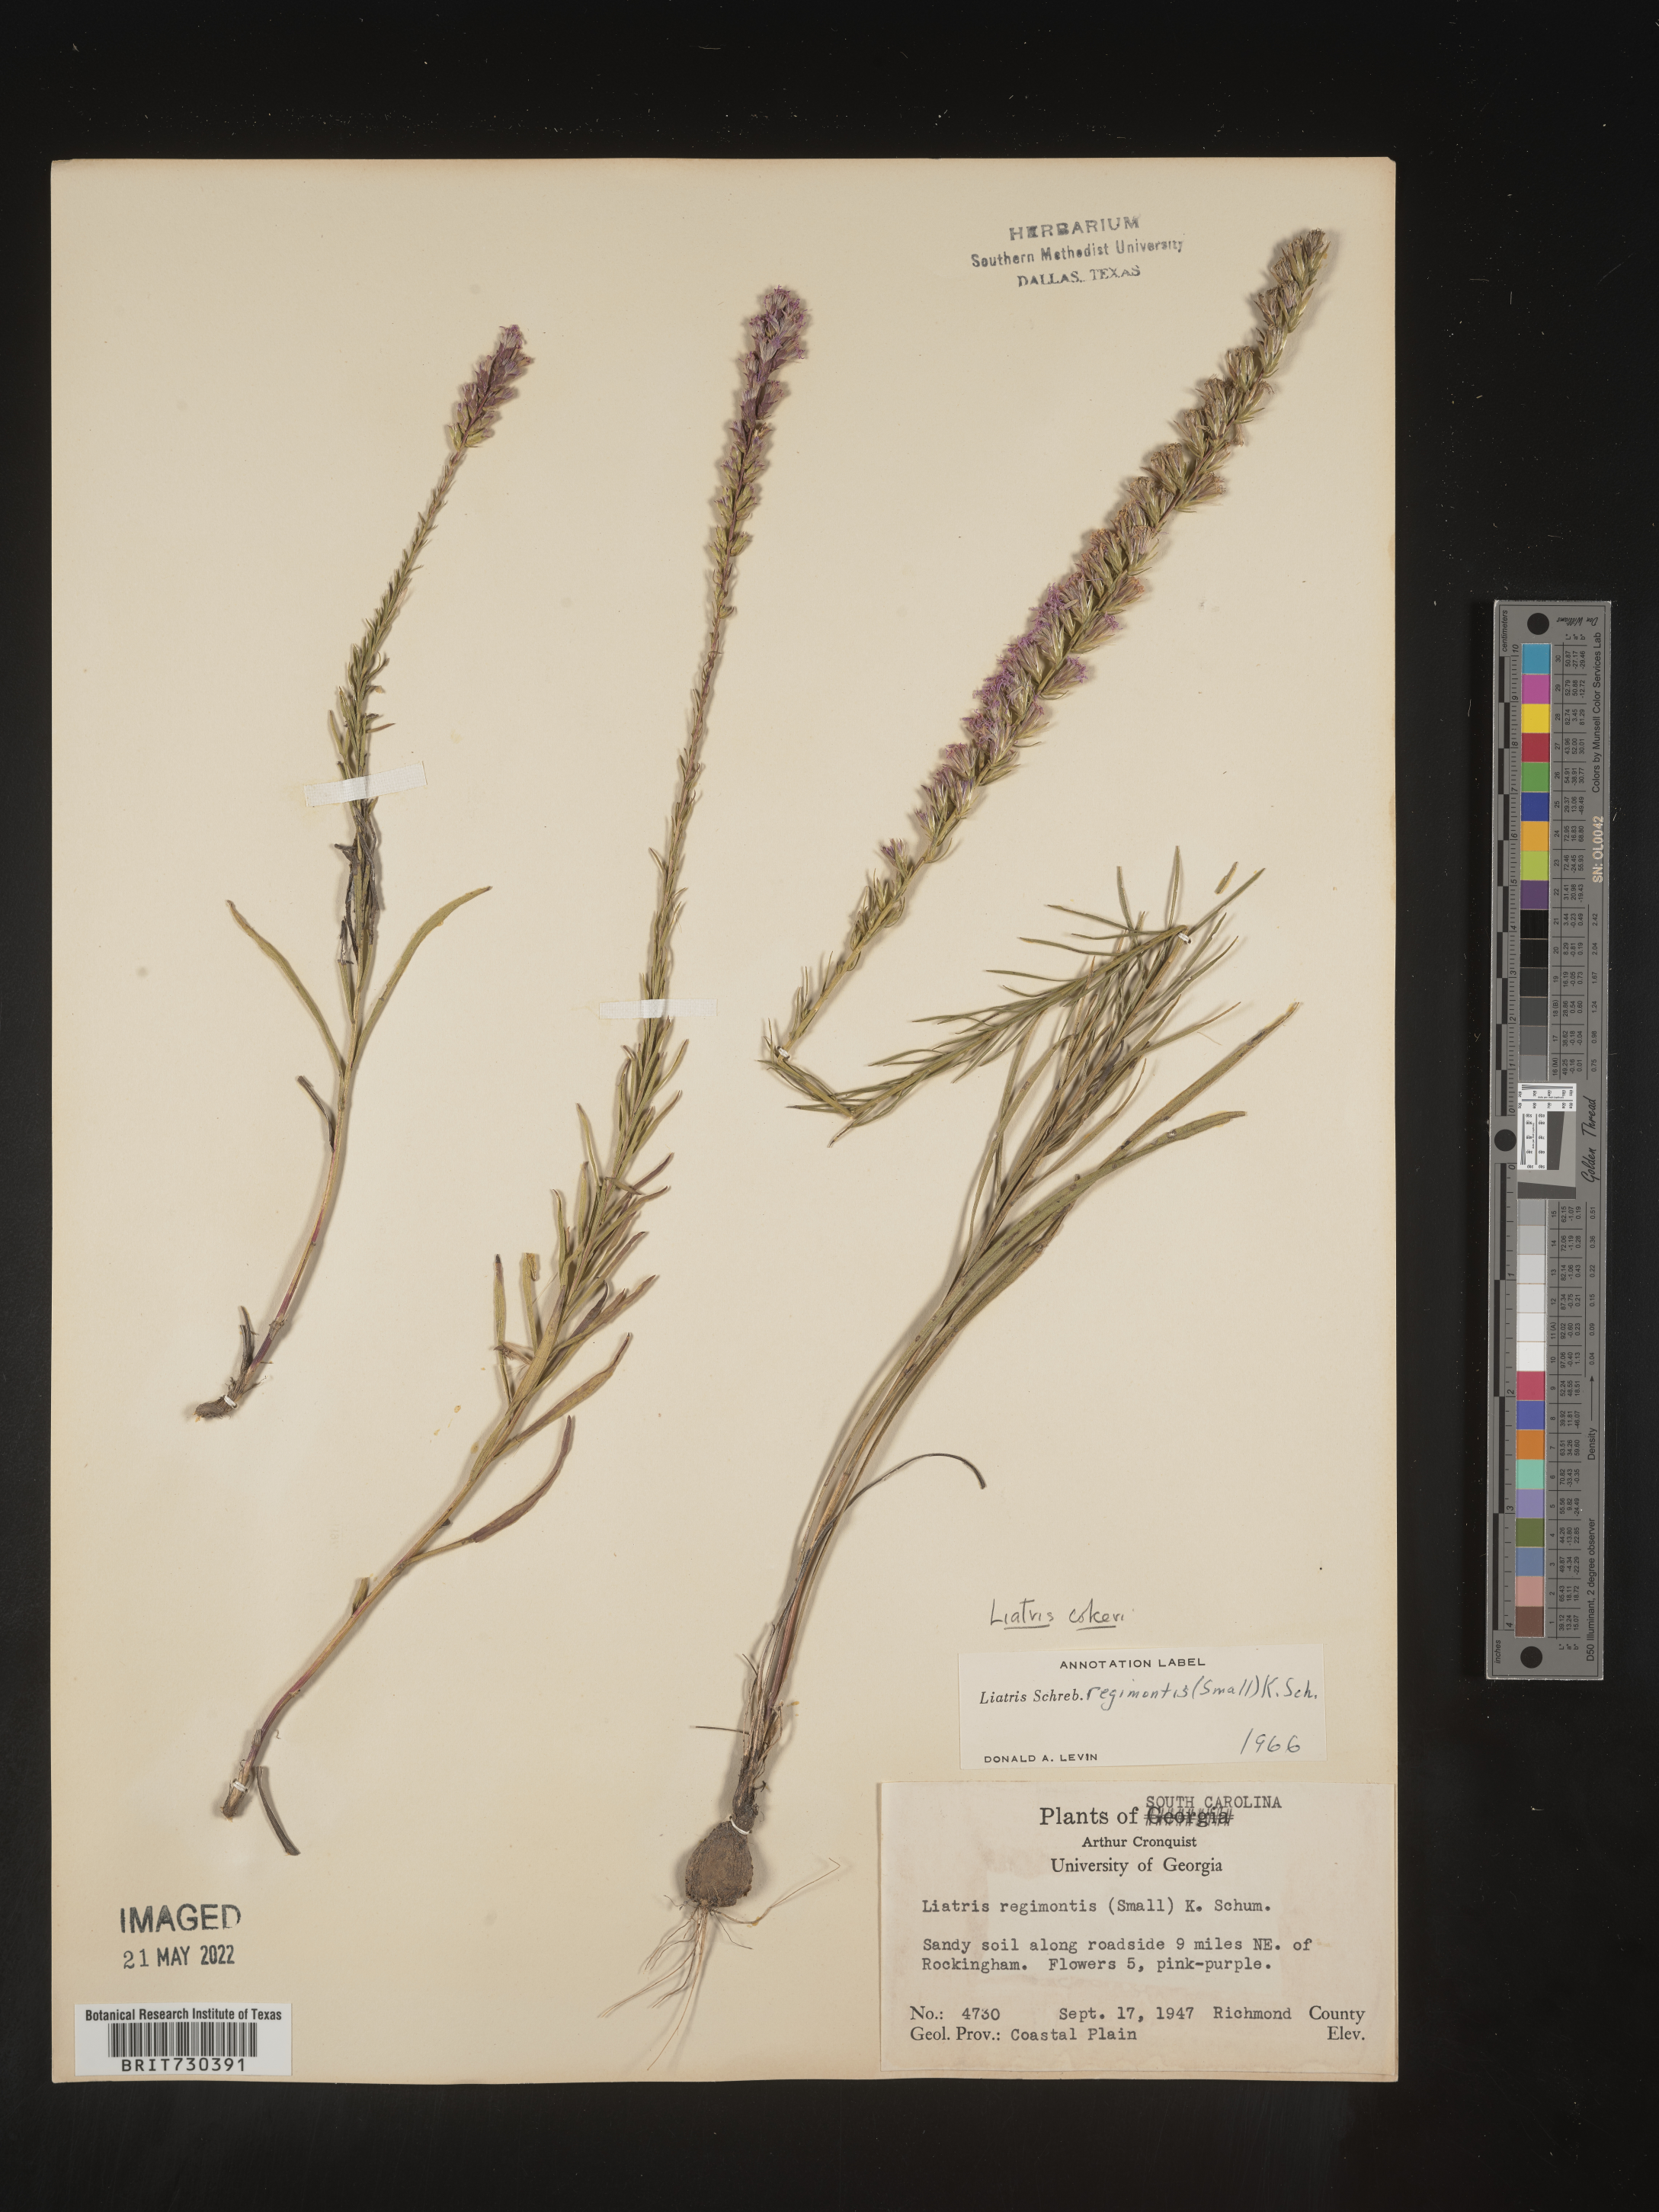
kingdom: Plantae
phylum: Tracheophyta
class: Magnoliopsida
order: Asterales
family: Asteraceae
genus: Liatris
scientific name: Liatris cokeri
